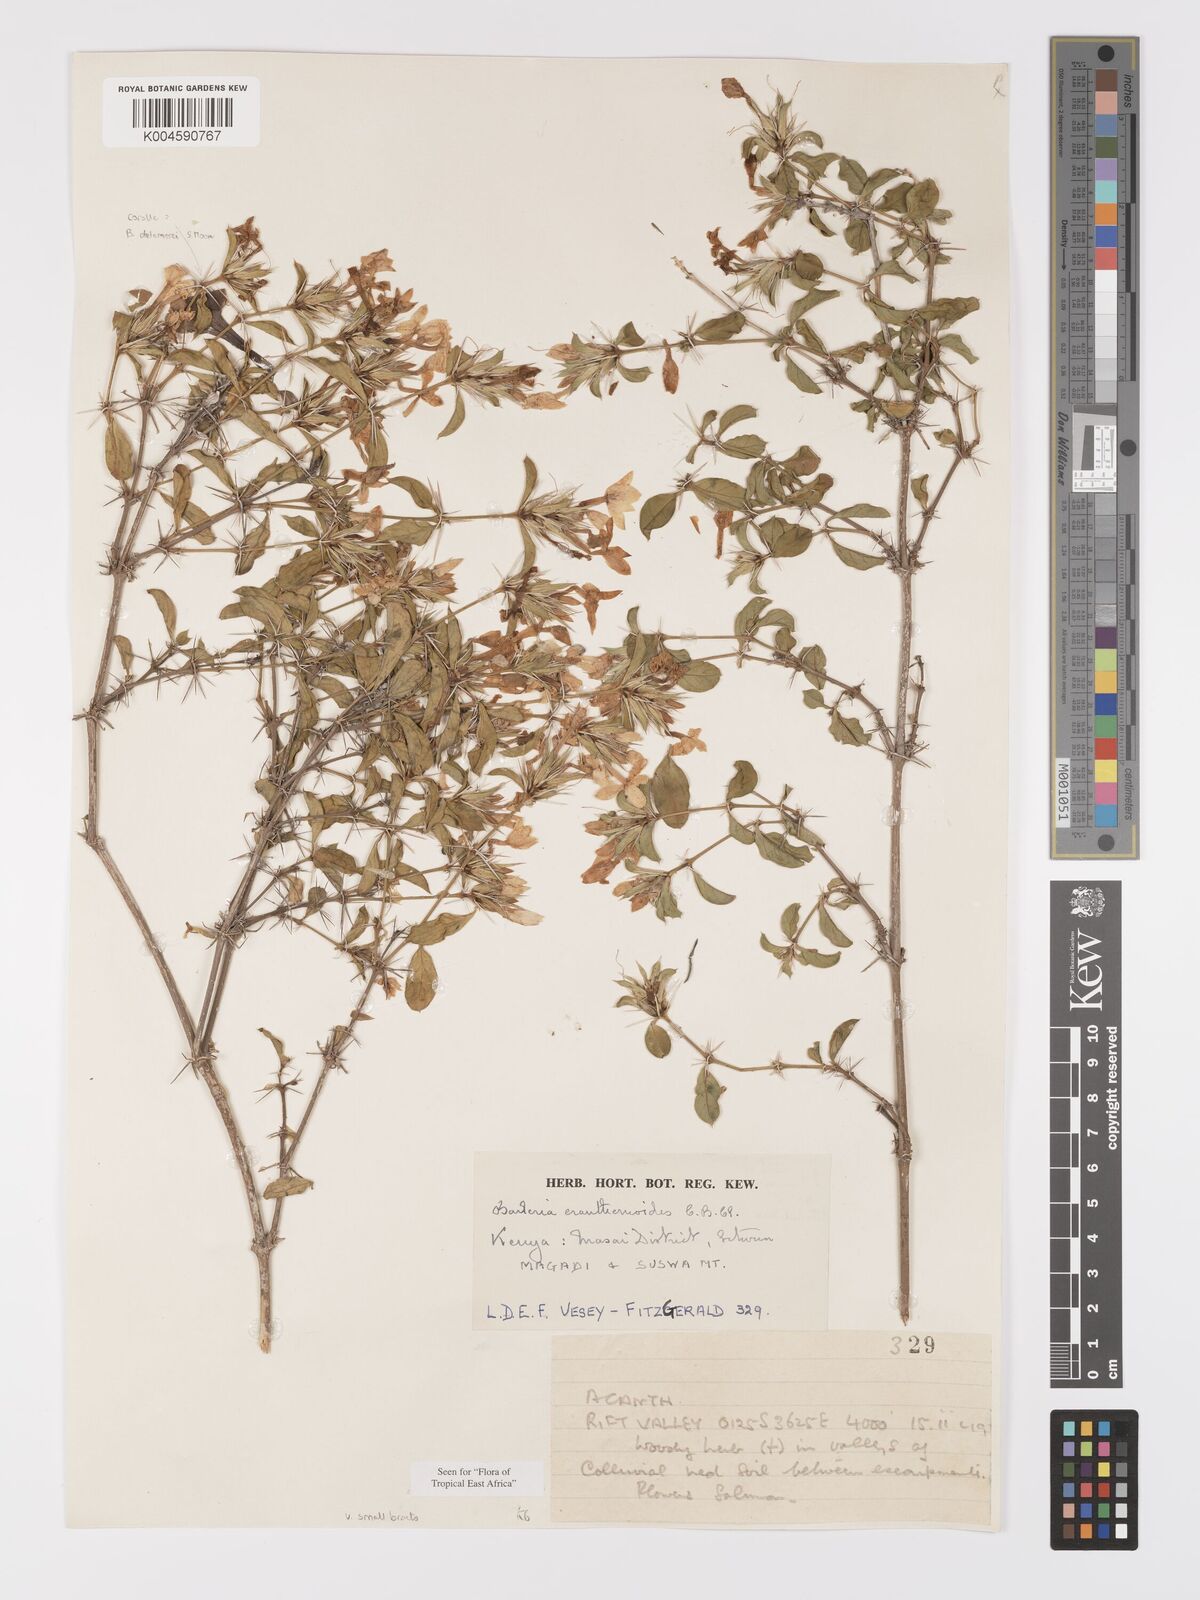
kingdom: Plantae
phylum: Tracheophyta
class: Magnoliopsida
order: Lamiales
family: Acanthaceae
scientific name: Acanthaceae
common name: Acanthaceae
